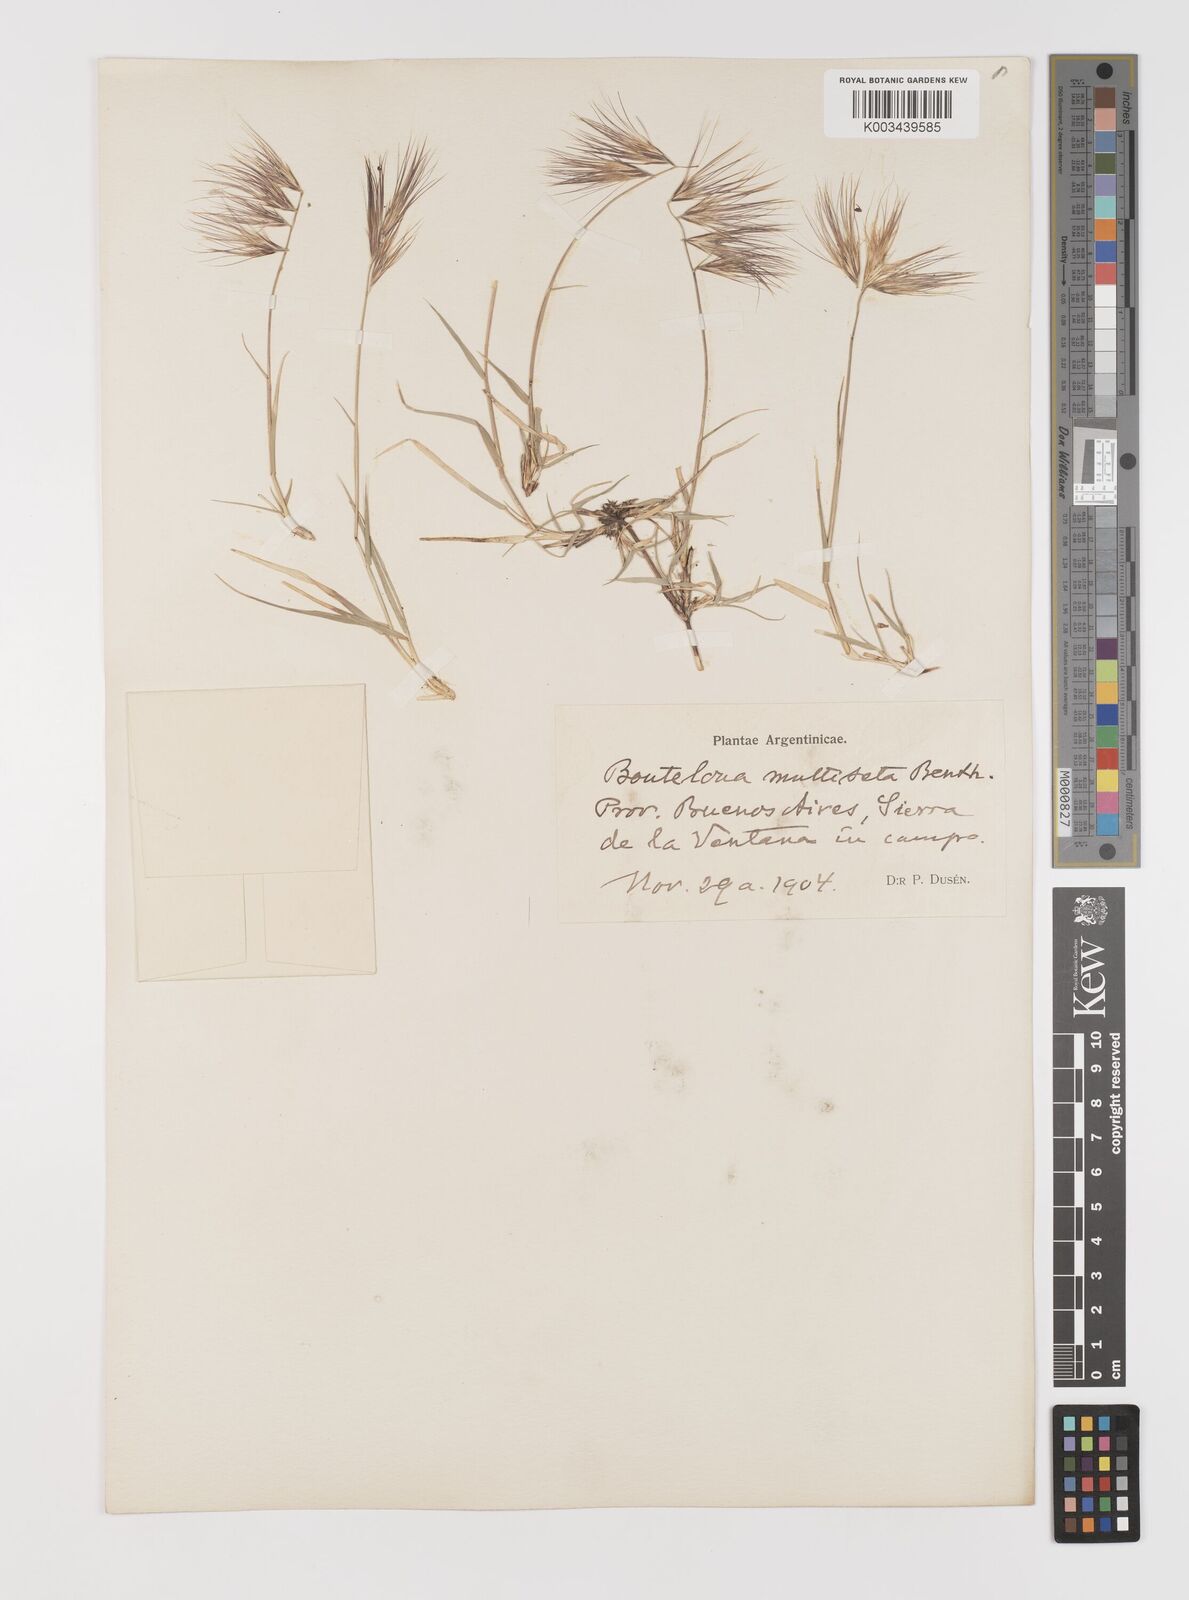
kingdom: Plantae
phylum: Tracheophyta
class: Liliopsida
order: Poales
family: Poaceae
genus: Bouteloua
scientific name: Bouteloua megapotamica
